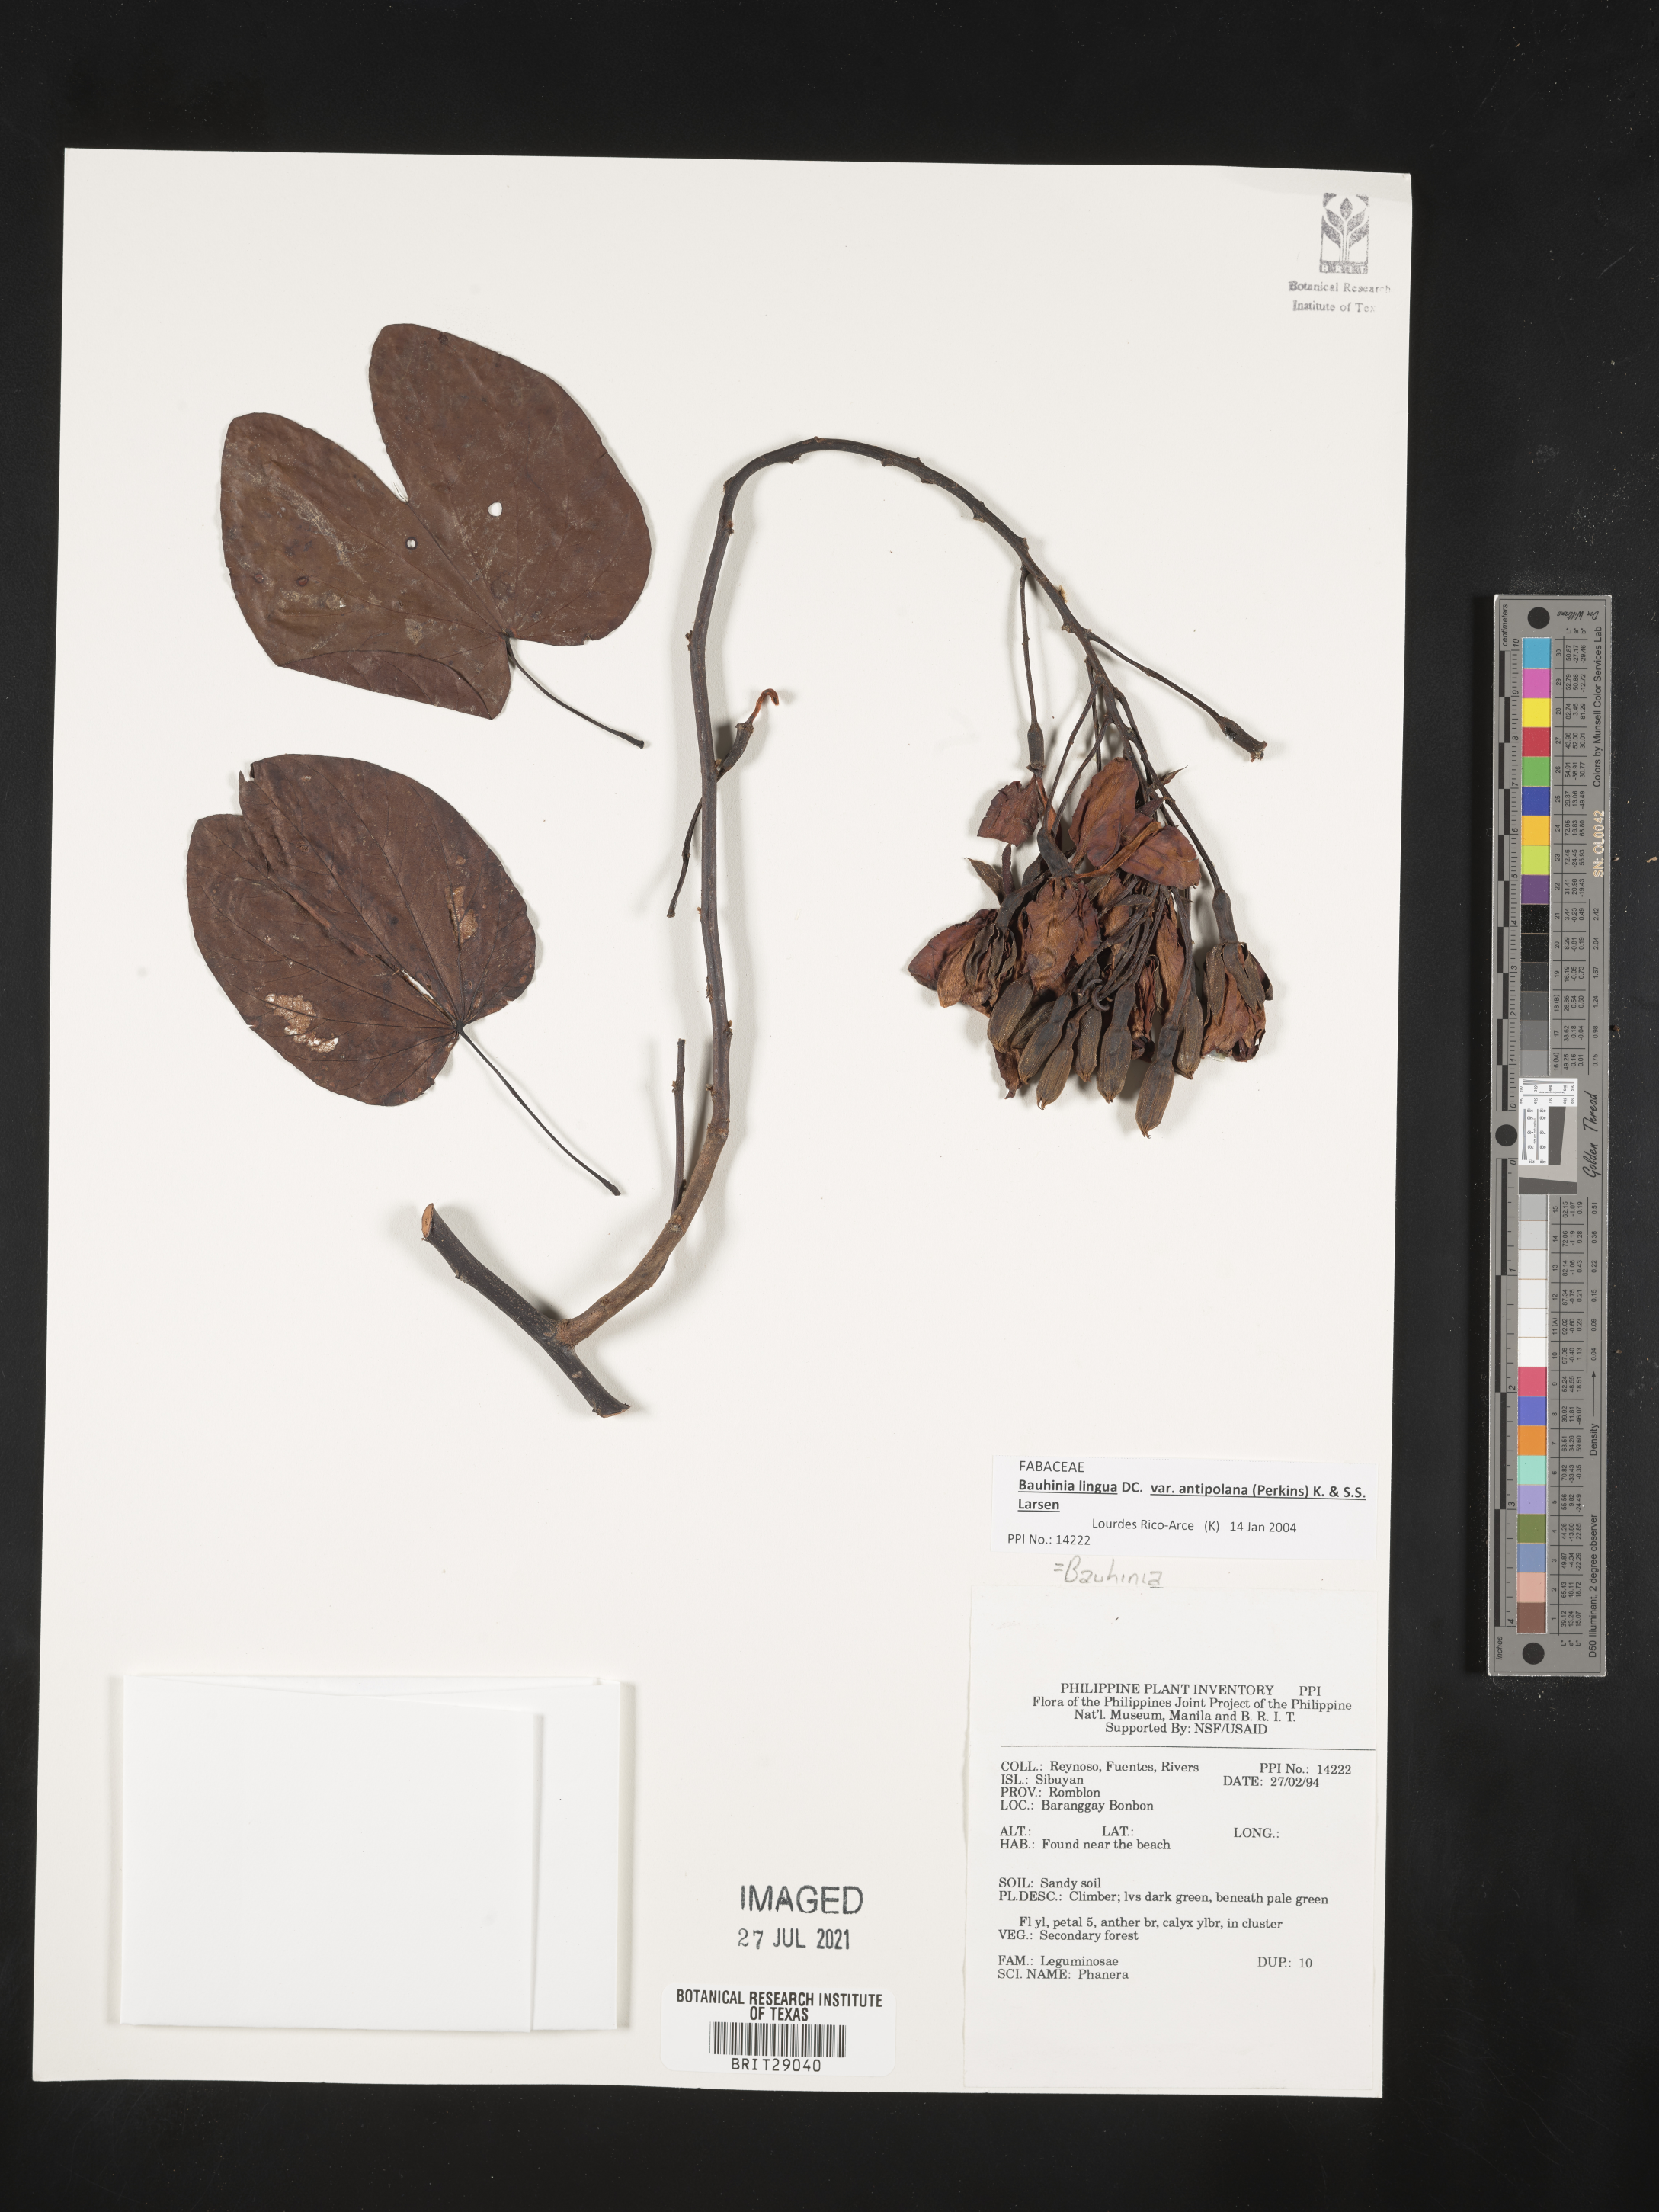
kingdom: Plantae
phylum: Tracheophyta
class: Magnoliopsida
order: Fabales
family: Fabaceae
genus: Bauhinia
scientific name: Bauhinia
